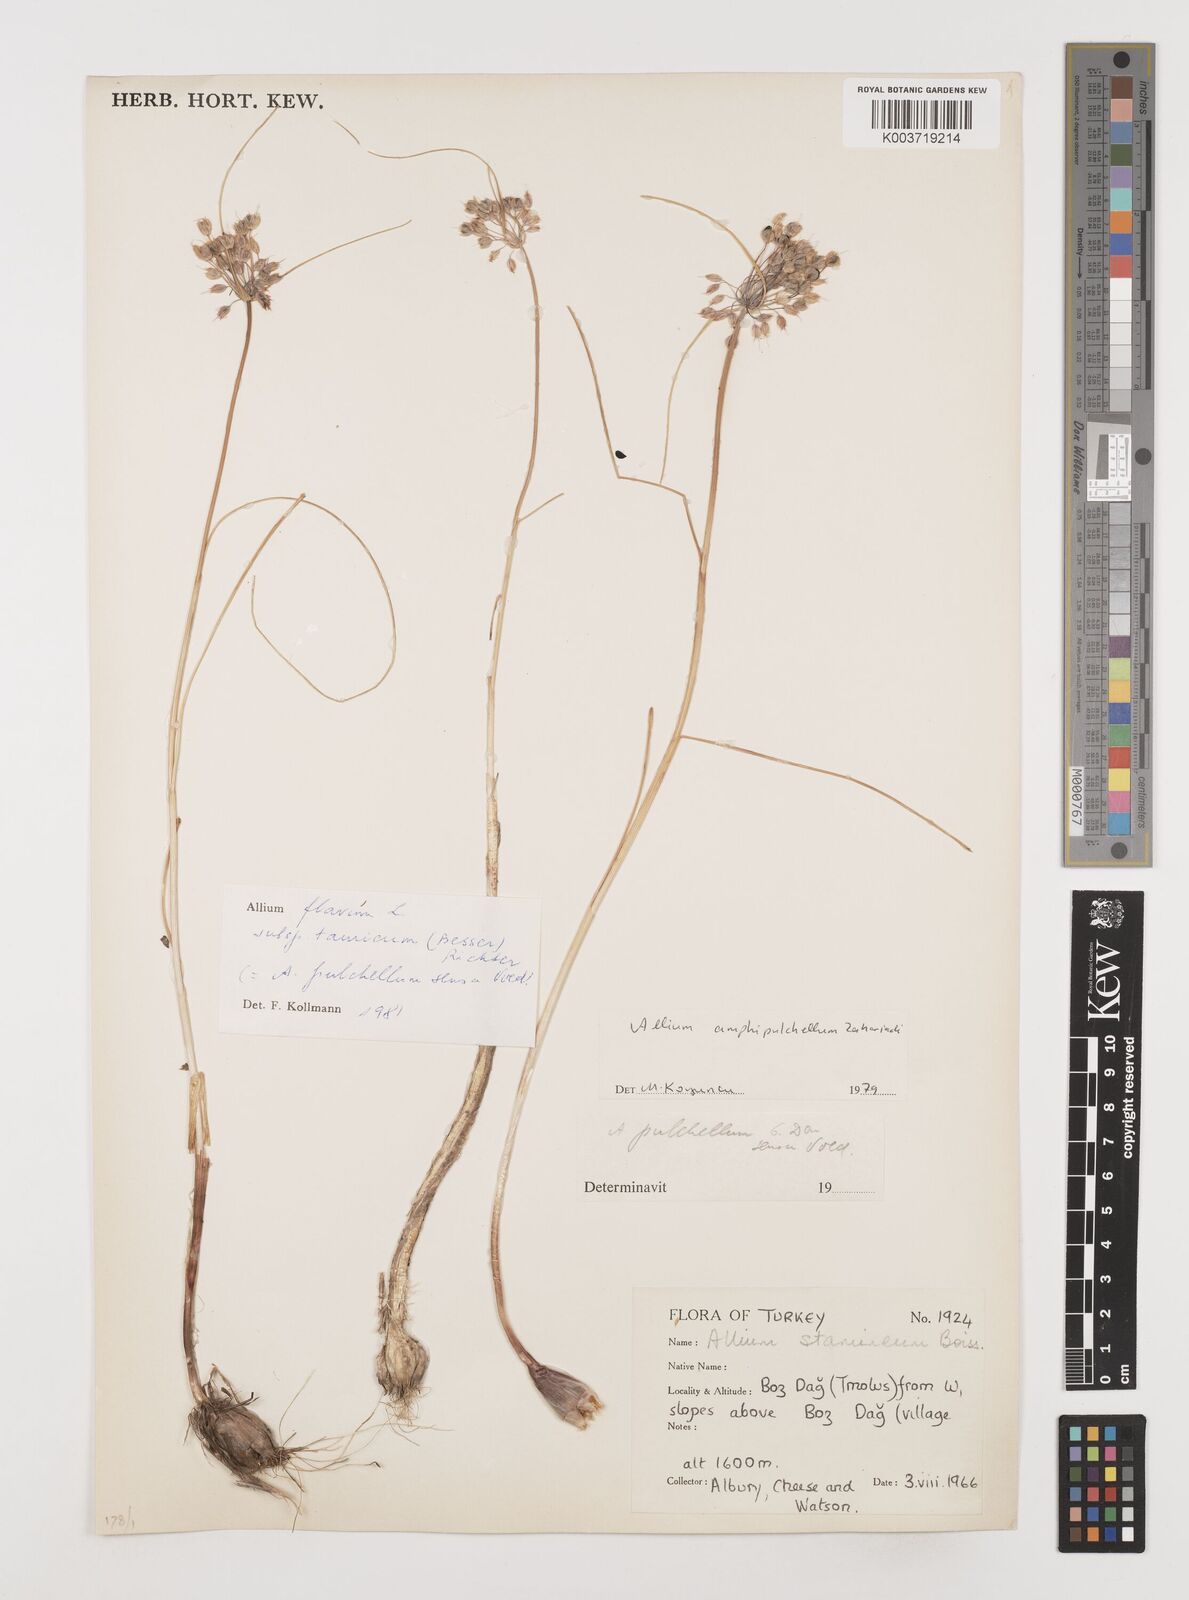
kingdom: Plantae
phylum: Tracheophyta
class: Liliopsida
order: Asparagales
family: Amaryllidaceae
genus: Allium
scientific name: Allium flavum
